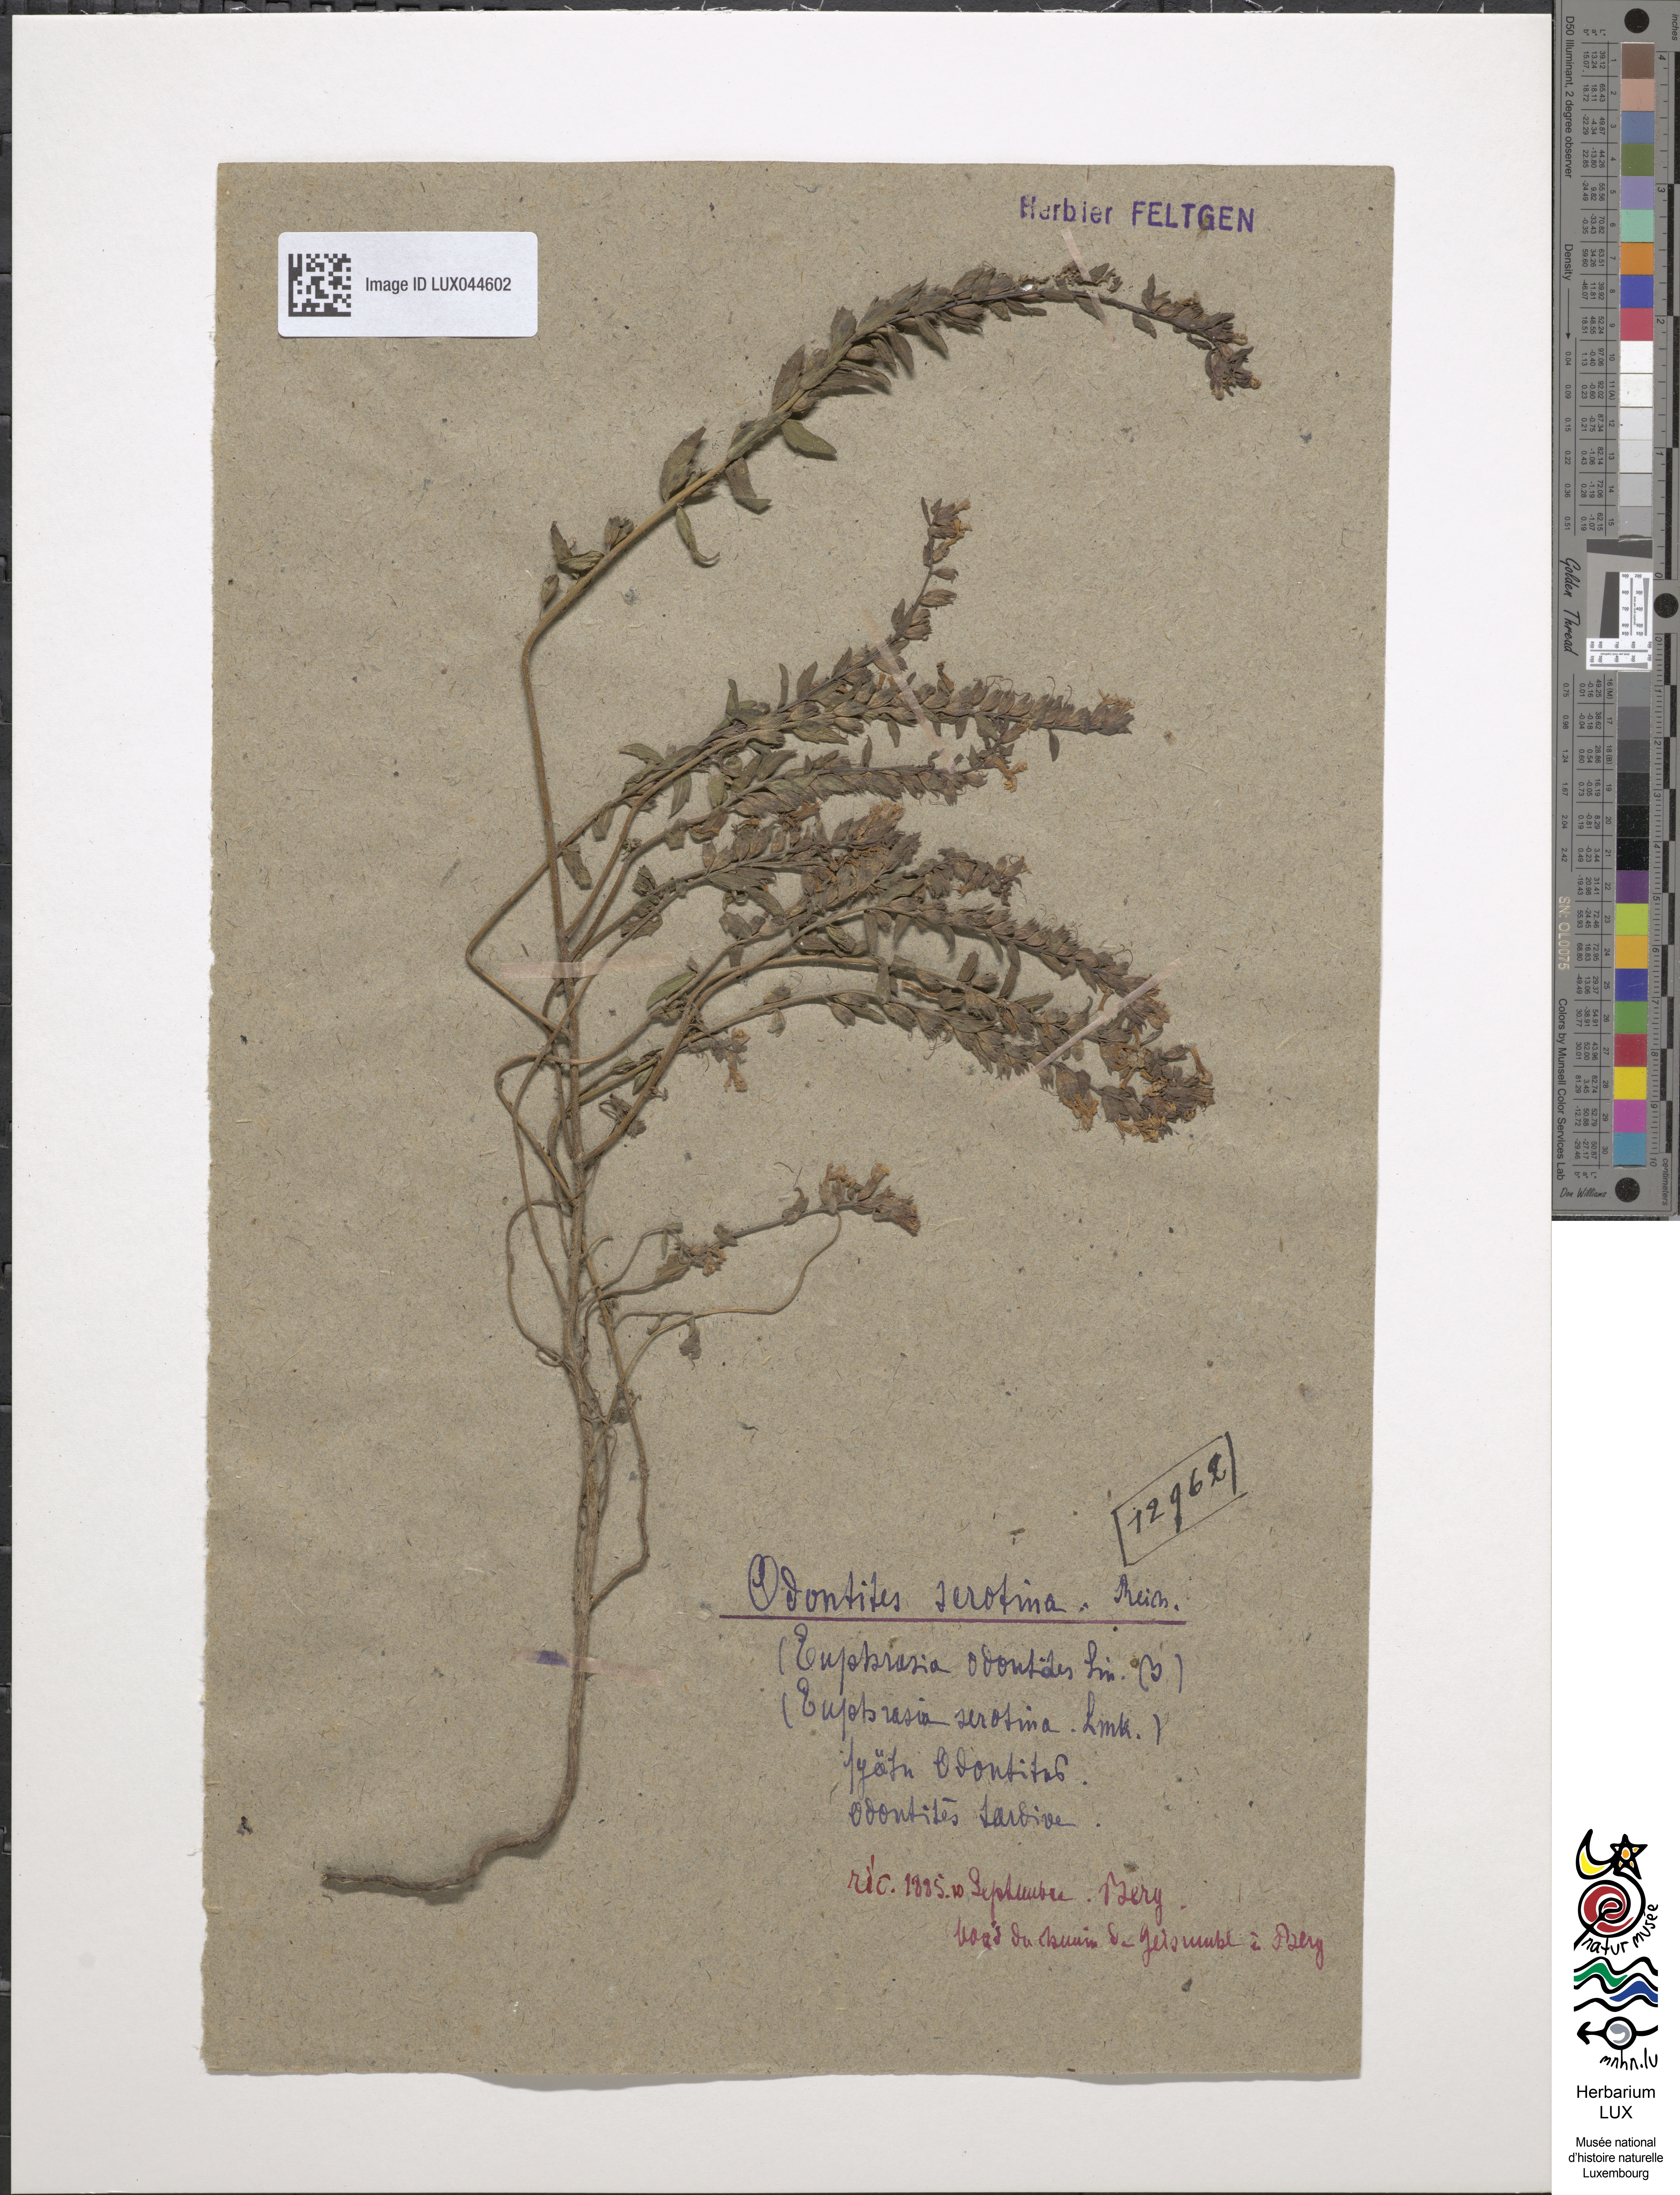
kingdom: Plantae
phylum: Tracheophyta
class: Magnoliopsida
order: Lamiales
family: Orobanchaceae
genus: Odontites
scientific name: Odontites vulgaris
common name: Broomrape
